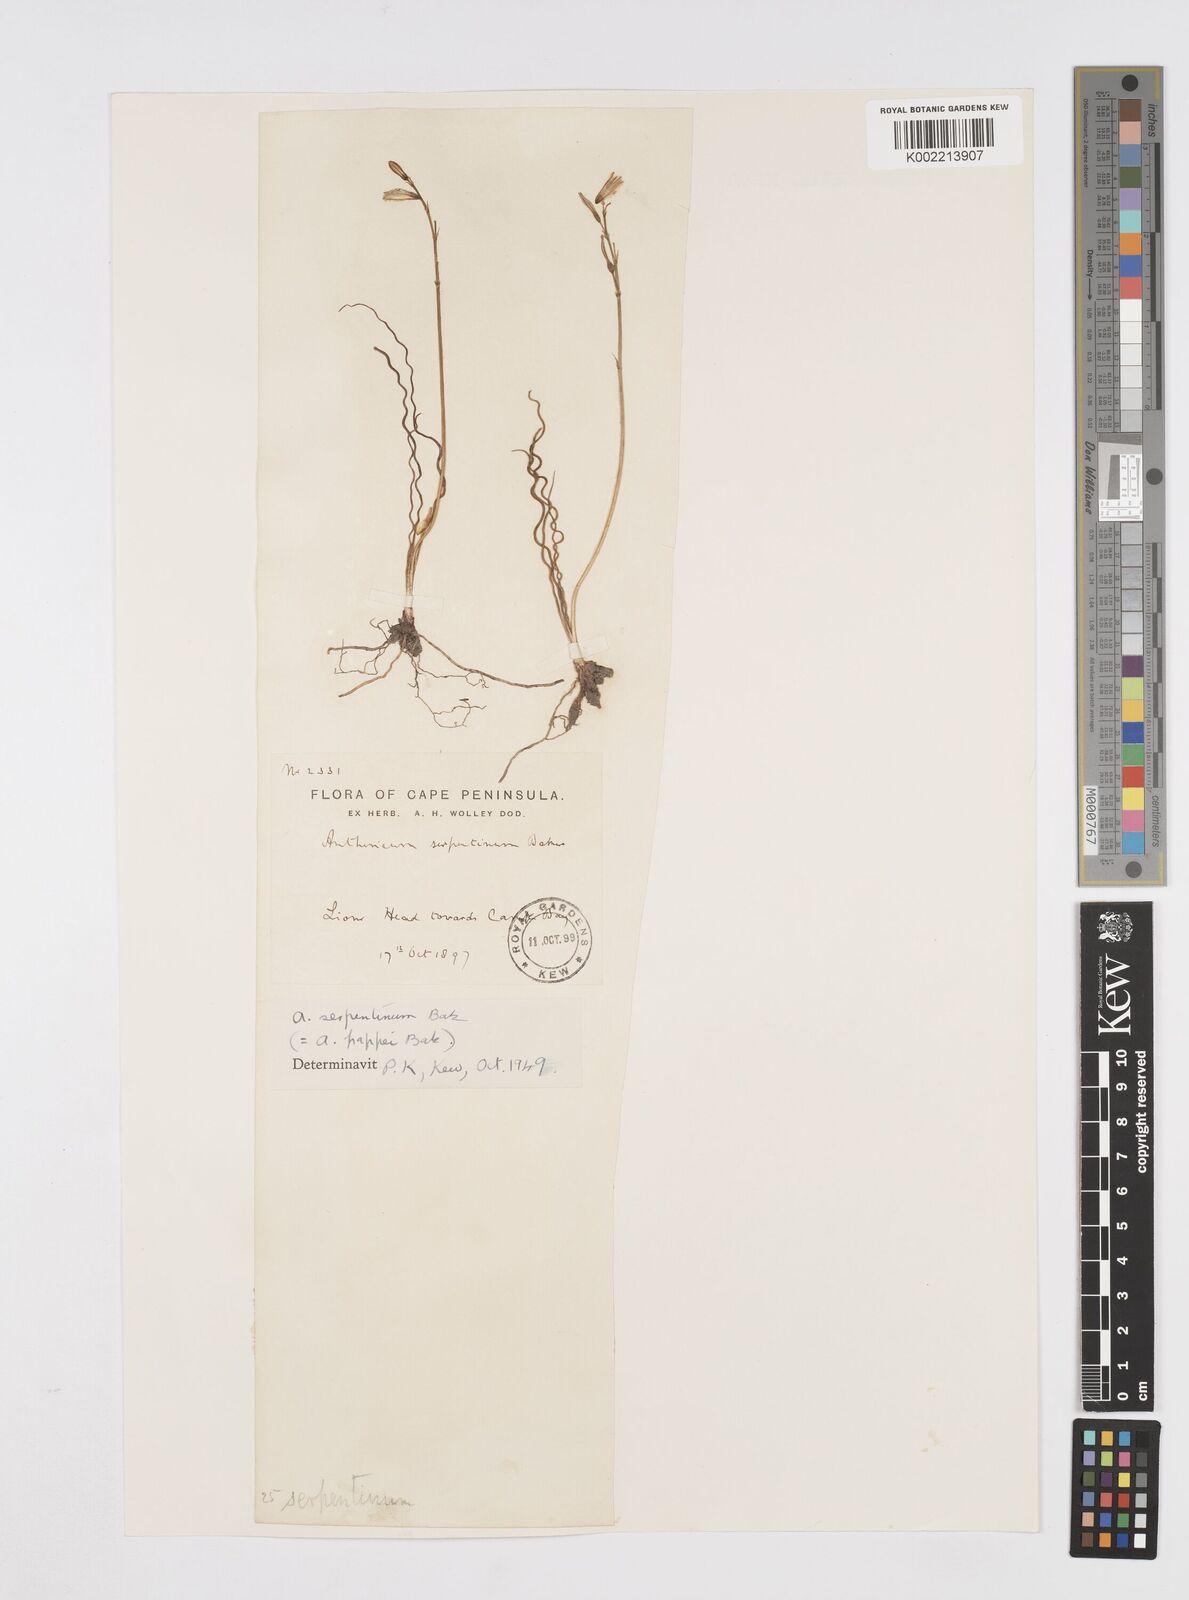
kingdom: Plantae
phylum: Tracheophyta
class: Liliopsida
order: Asparagales
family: Asphodelaceae
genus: Trachyandra
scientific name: Trachyandra flexifolia
